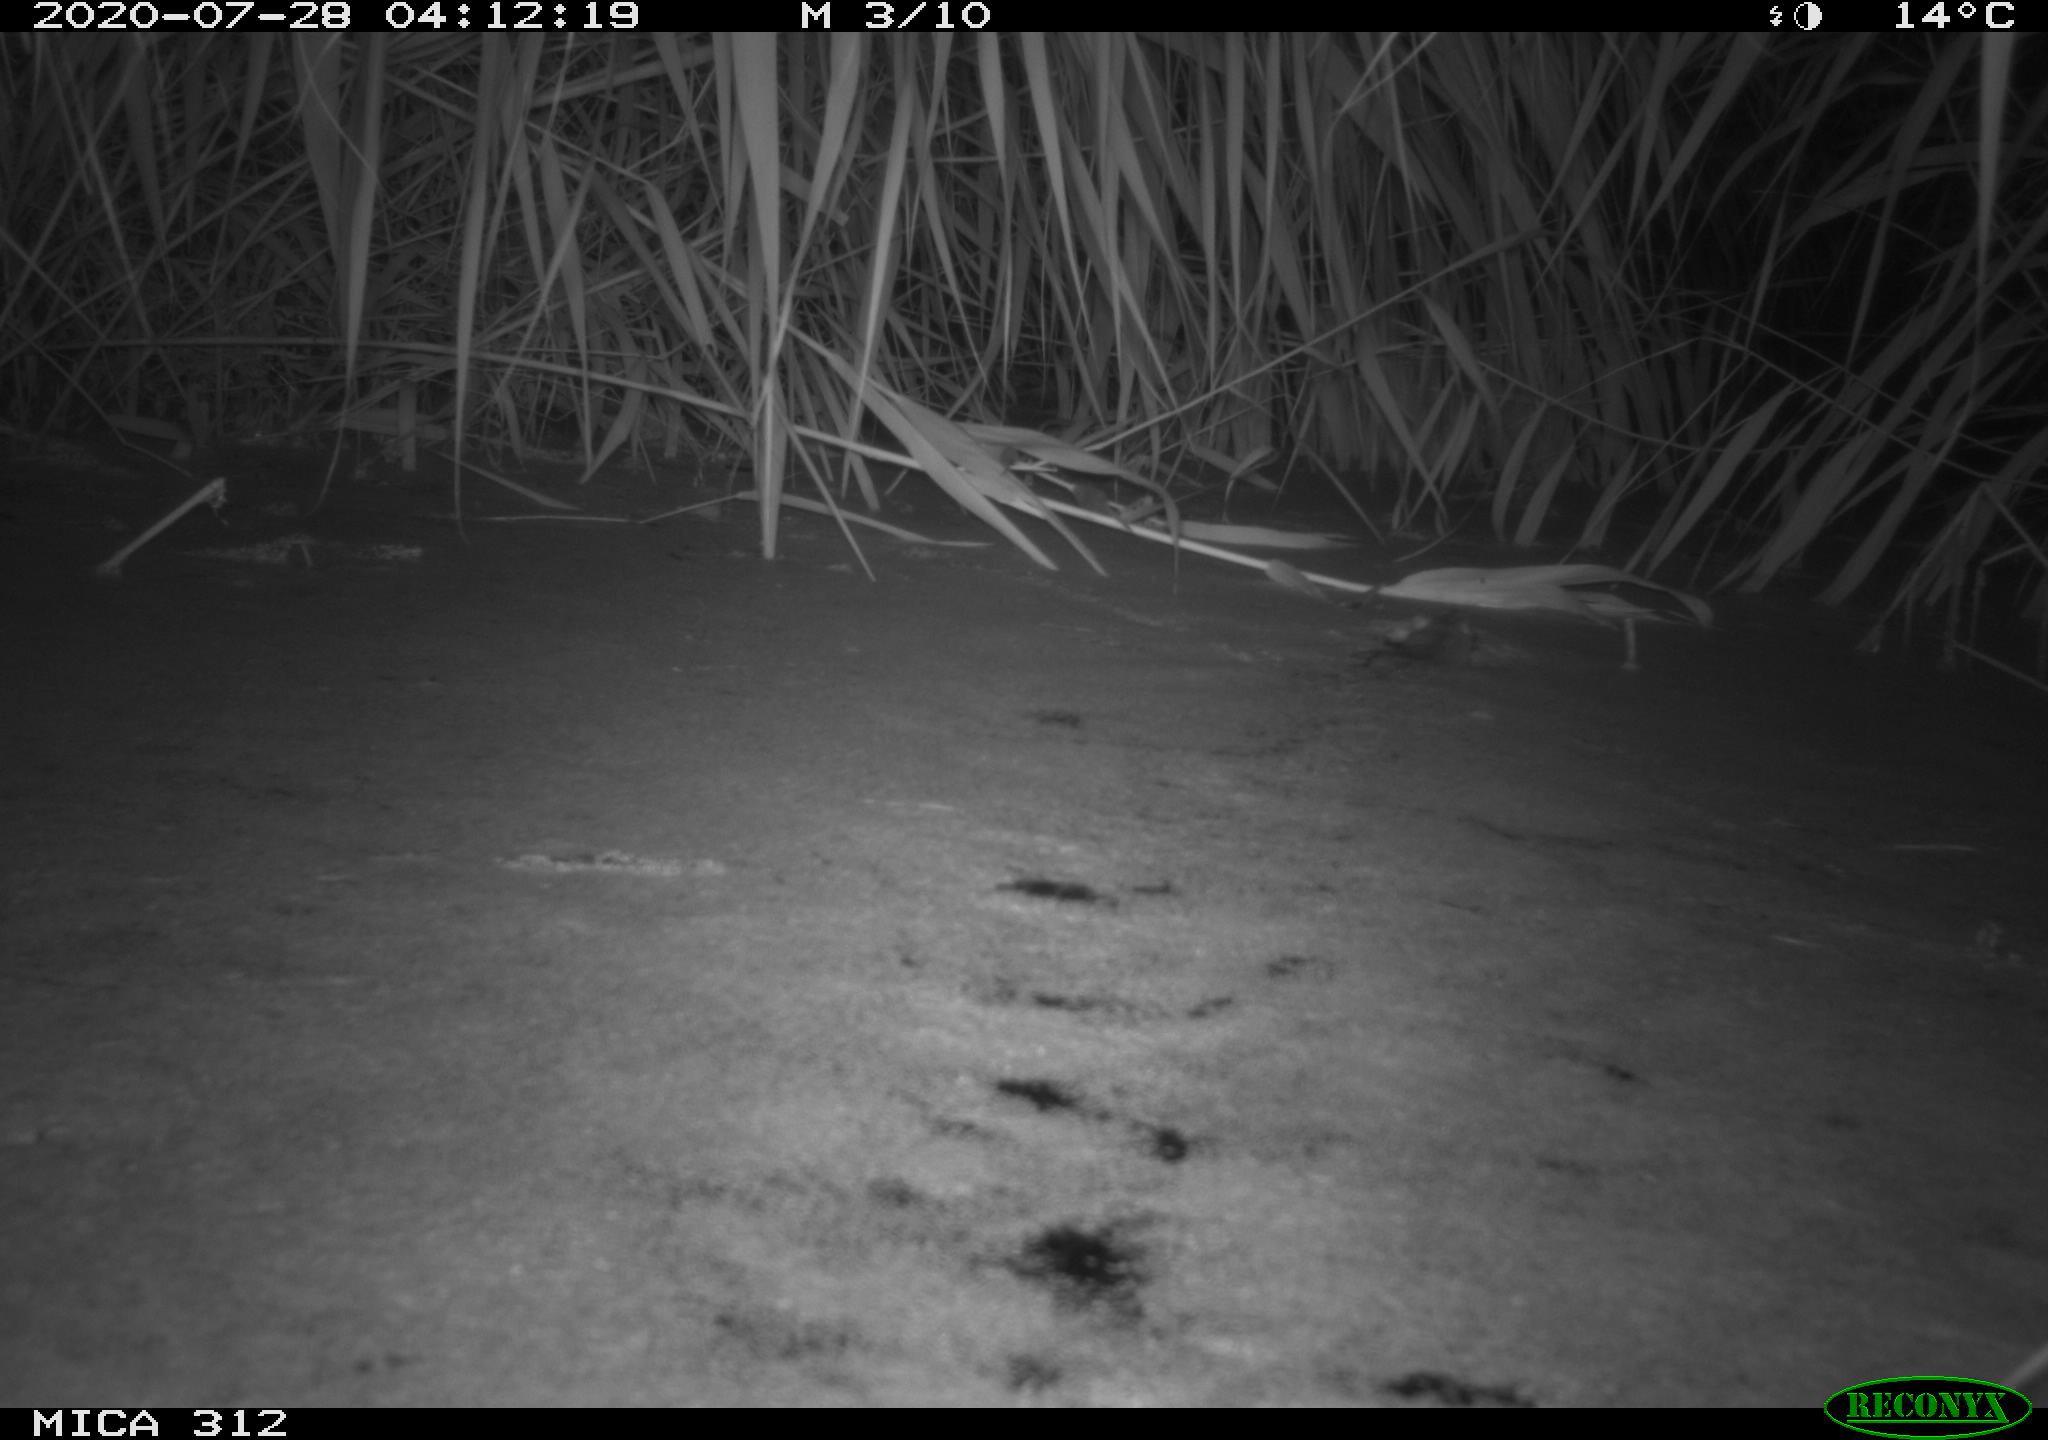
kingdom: Animalia
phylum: Chordata
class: Mammalia
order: Rodentia
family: Muridae
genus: Rattus
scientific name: Rattus norvegicus
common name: Brown rat
